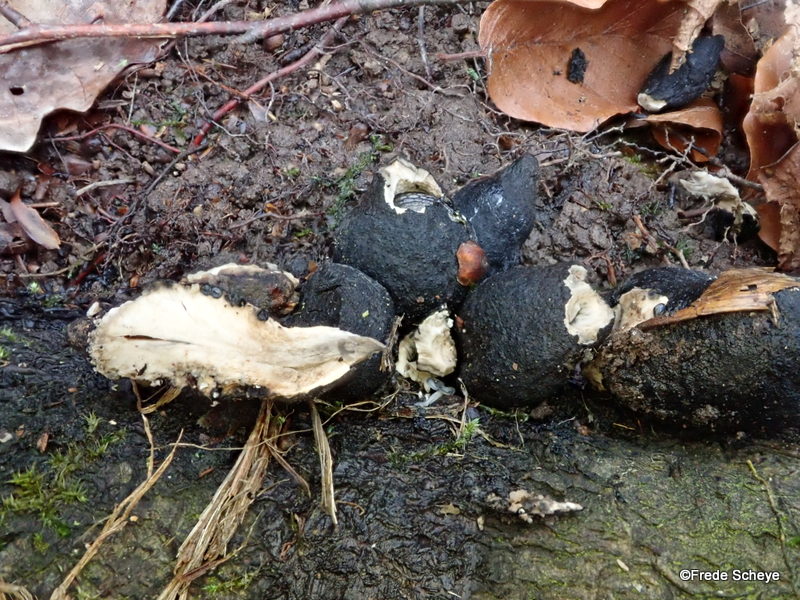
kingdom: Fungi
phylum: Ascomycota
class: Sordariomycetes
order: Xylariales
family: Xylariaceae
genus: Xylaria
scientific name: Xylaria polymorpha
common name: kølle-stødsvamp
